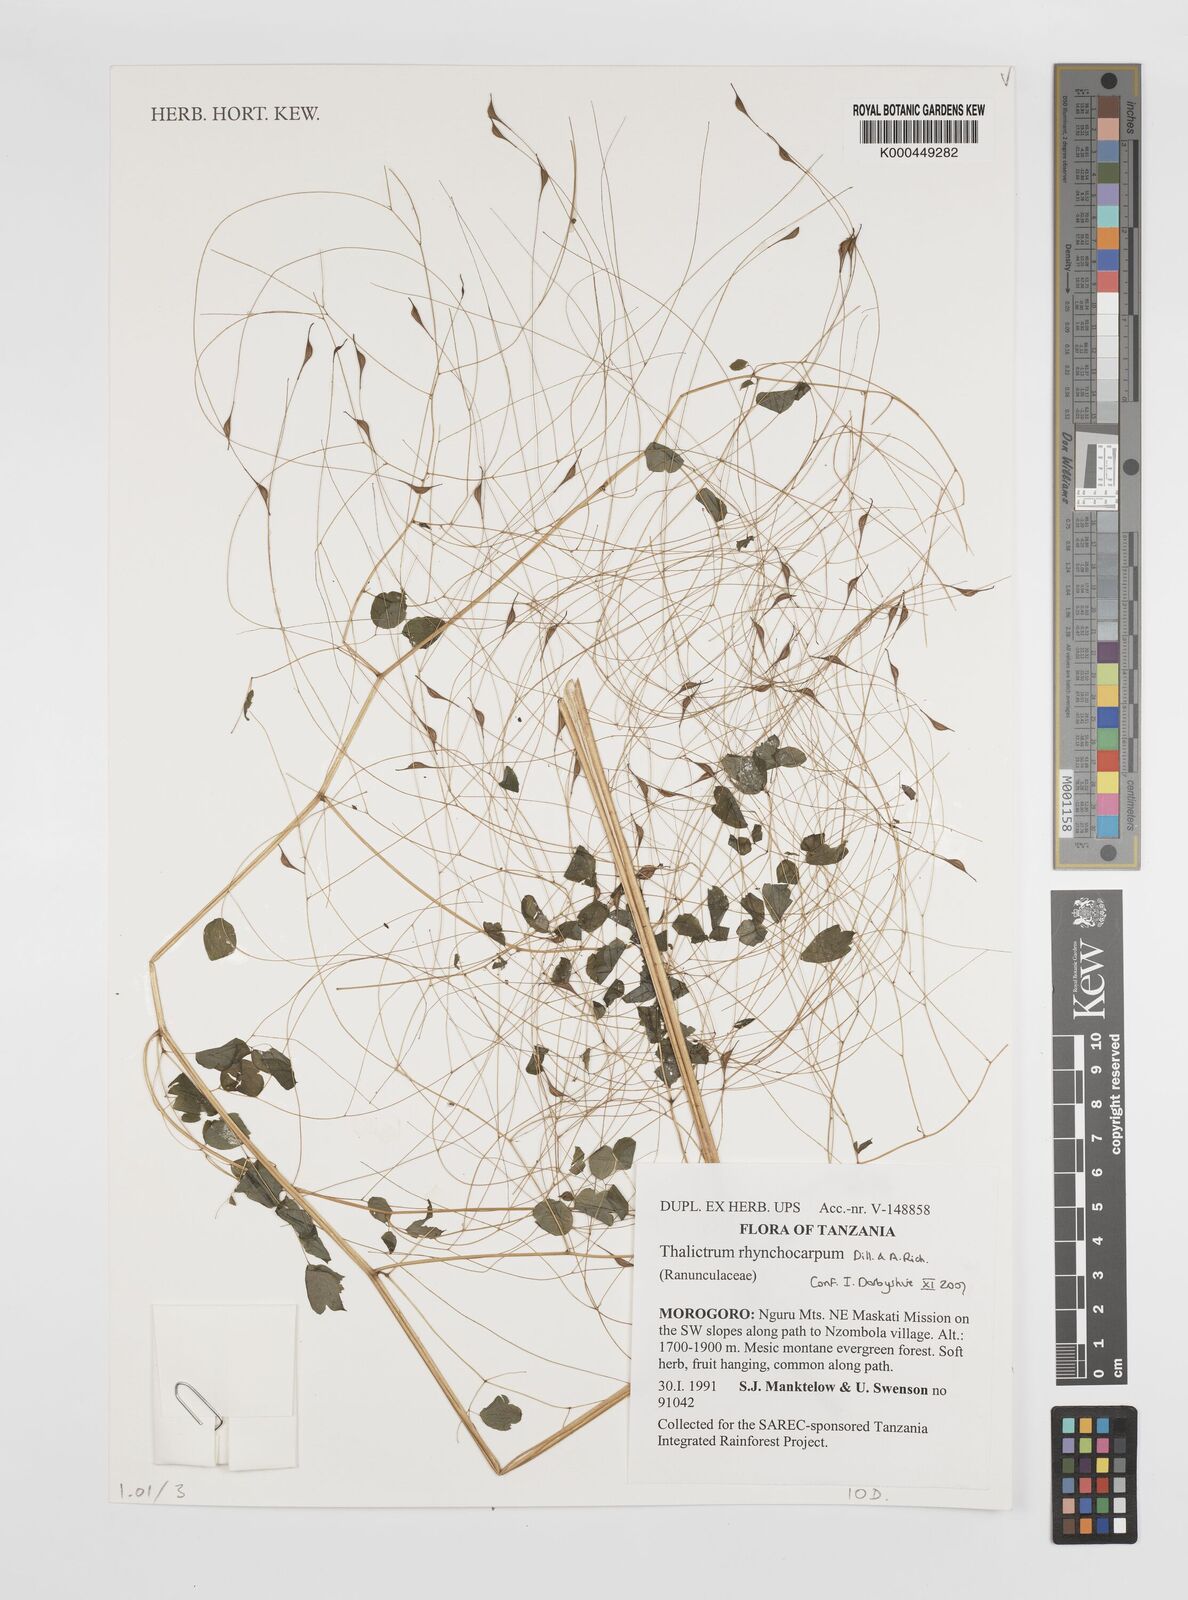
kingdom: Plantae
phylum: Tracheophyta
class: Magnoliopsida
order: Ranunculales
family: Ranunculaceae
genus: Thalictrum
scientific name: Thalictrum rhynchocarpum
